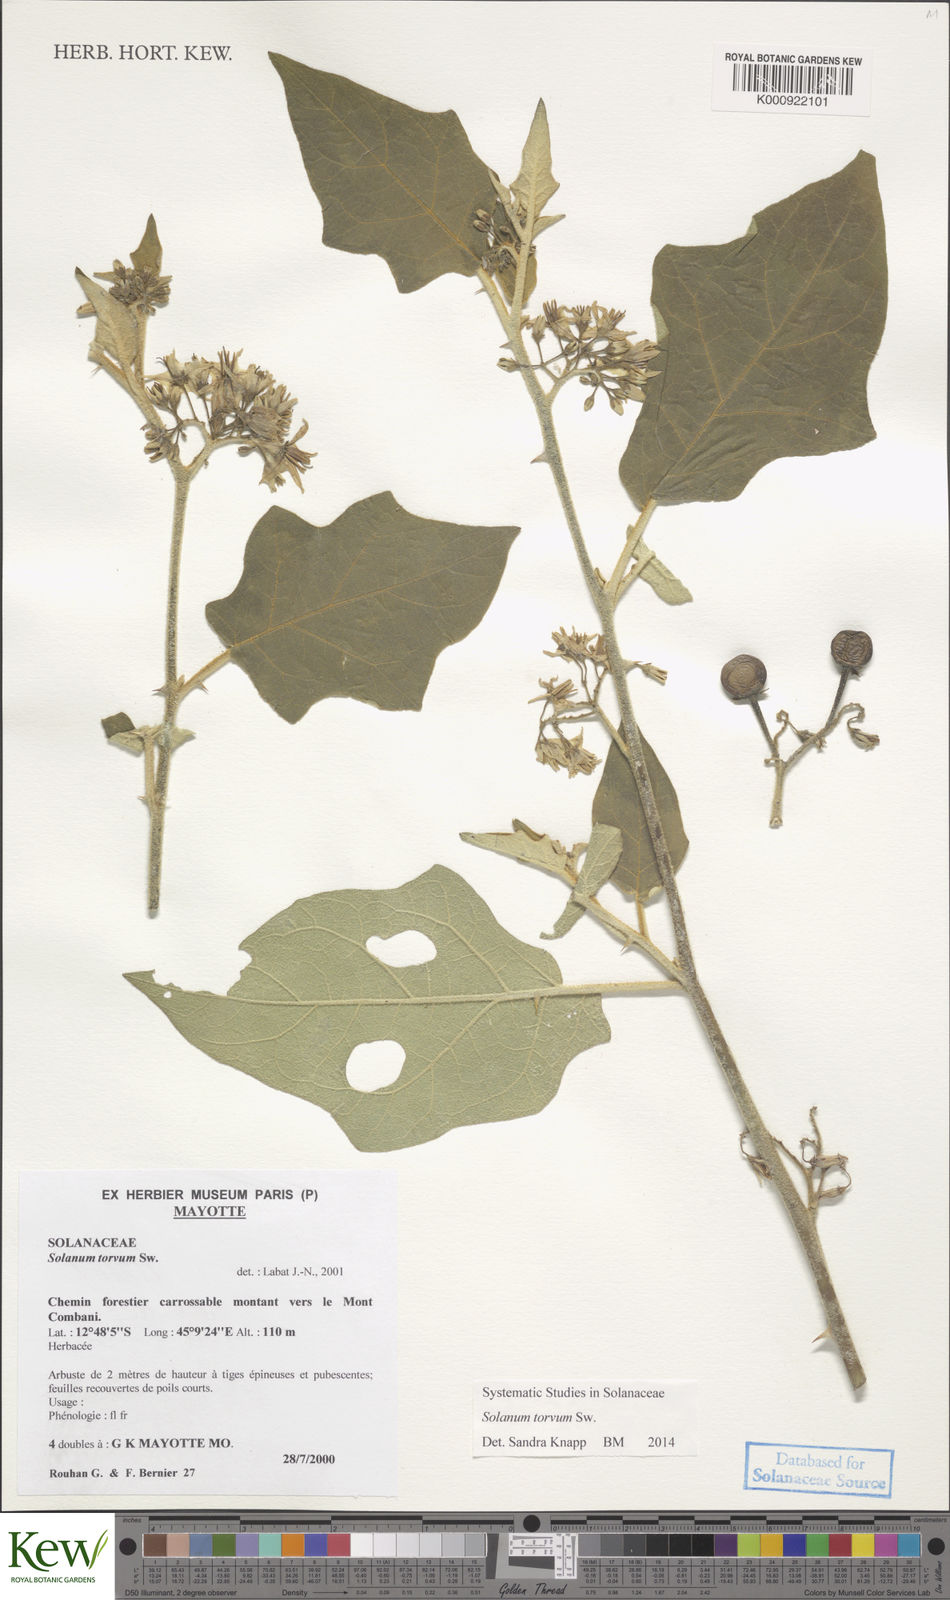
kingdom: Plantae
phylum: Tracheophyta
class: Magnoliopsida
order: Solanales
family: Solanaceae
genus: Solanum
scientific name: Solanum torvum
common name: Turkey berry
